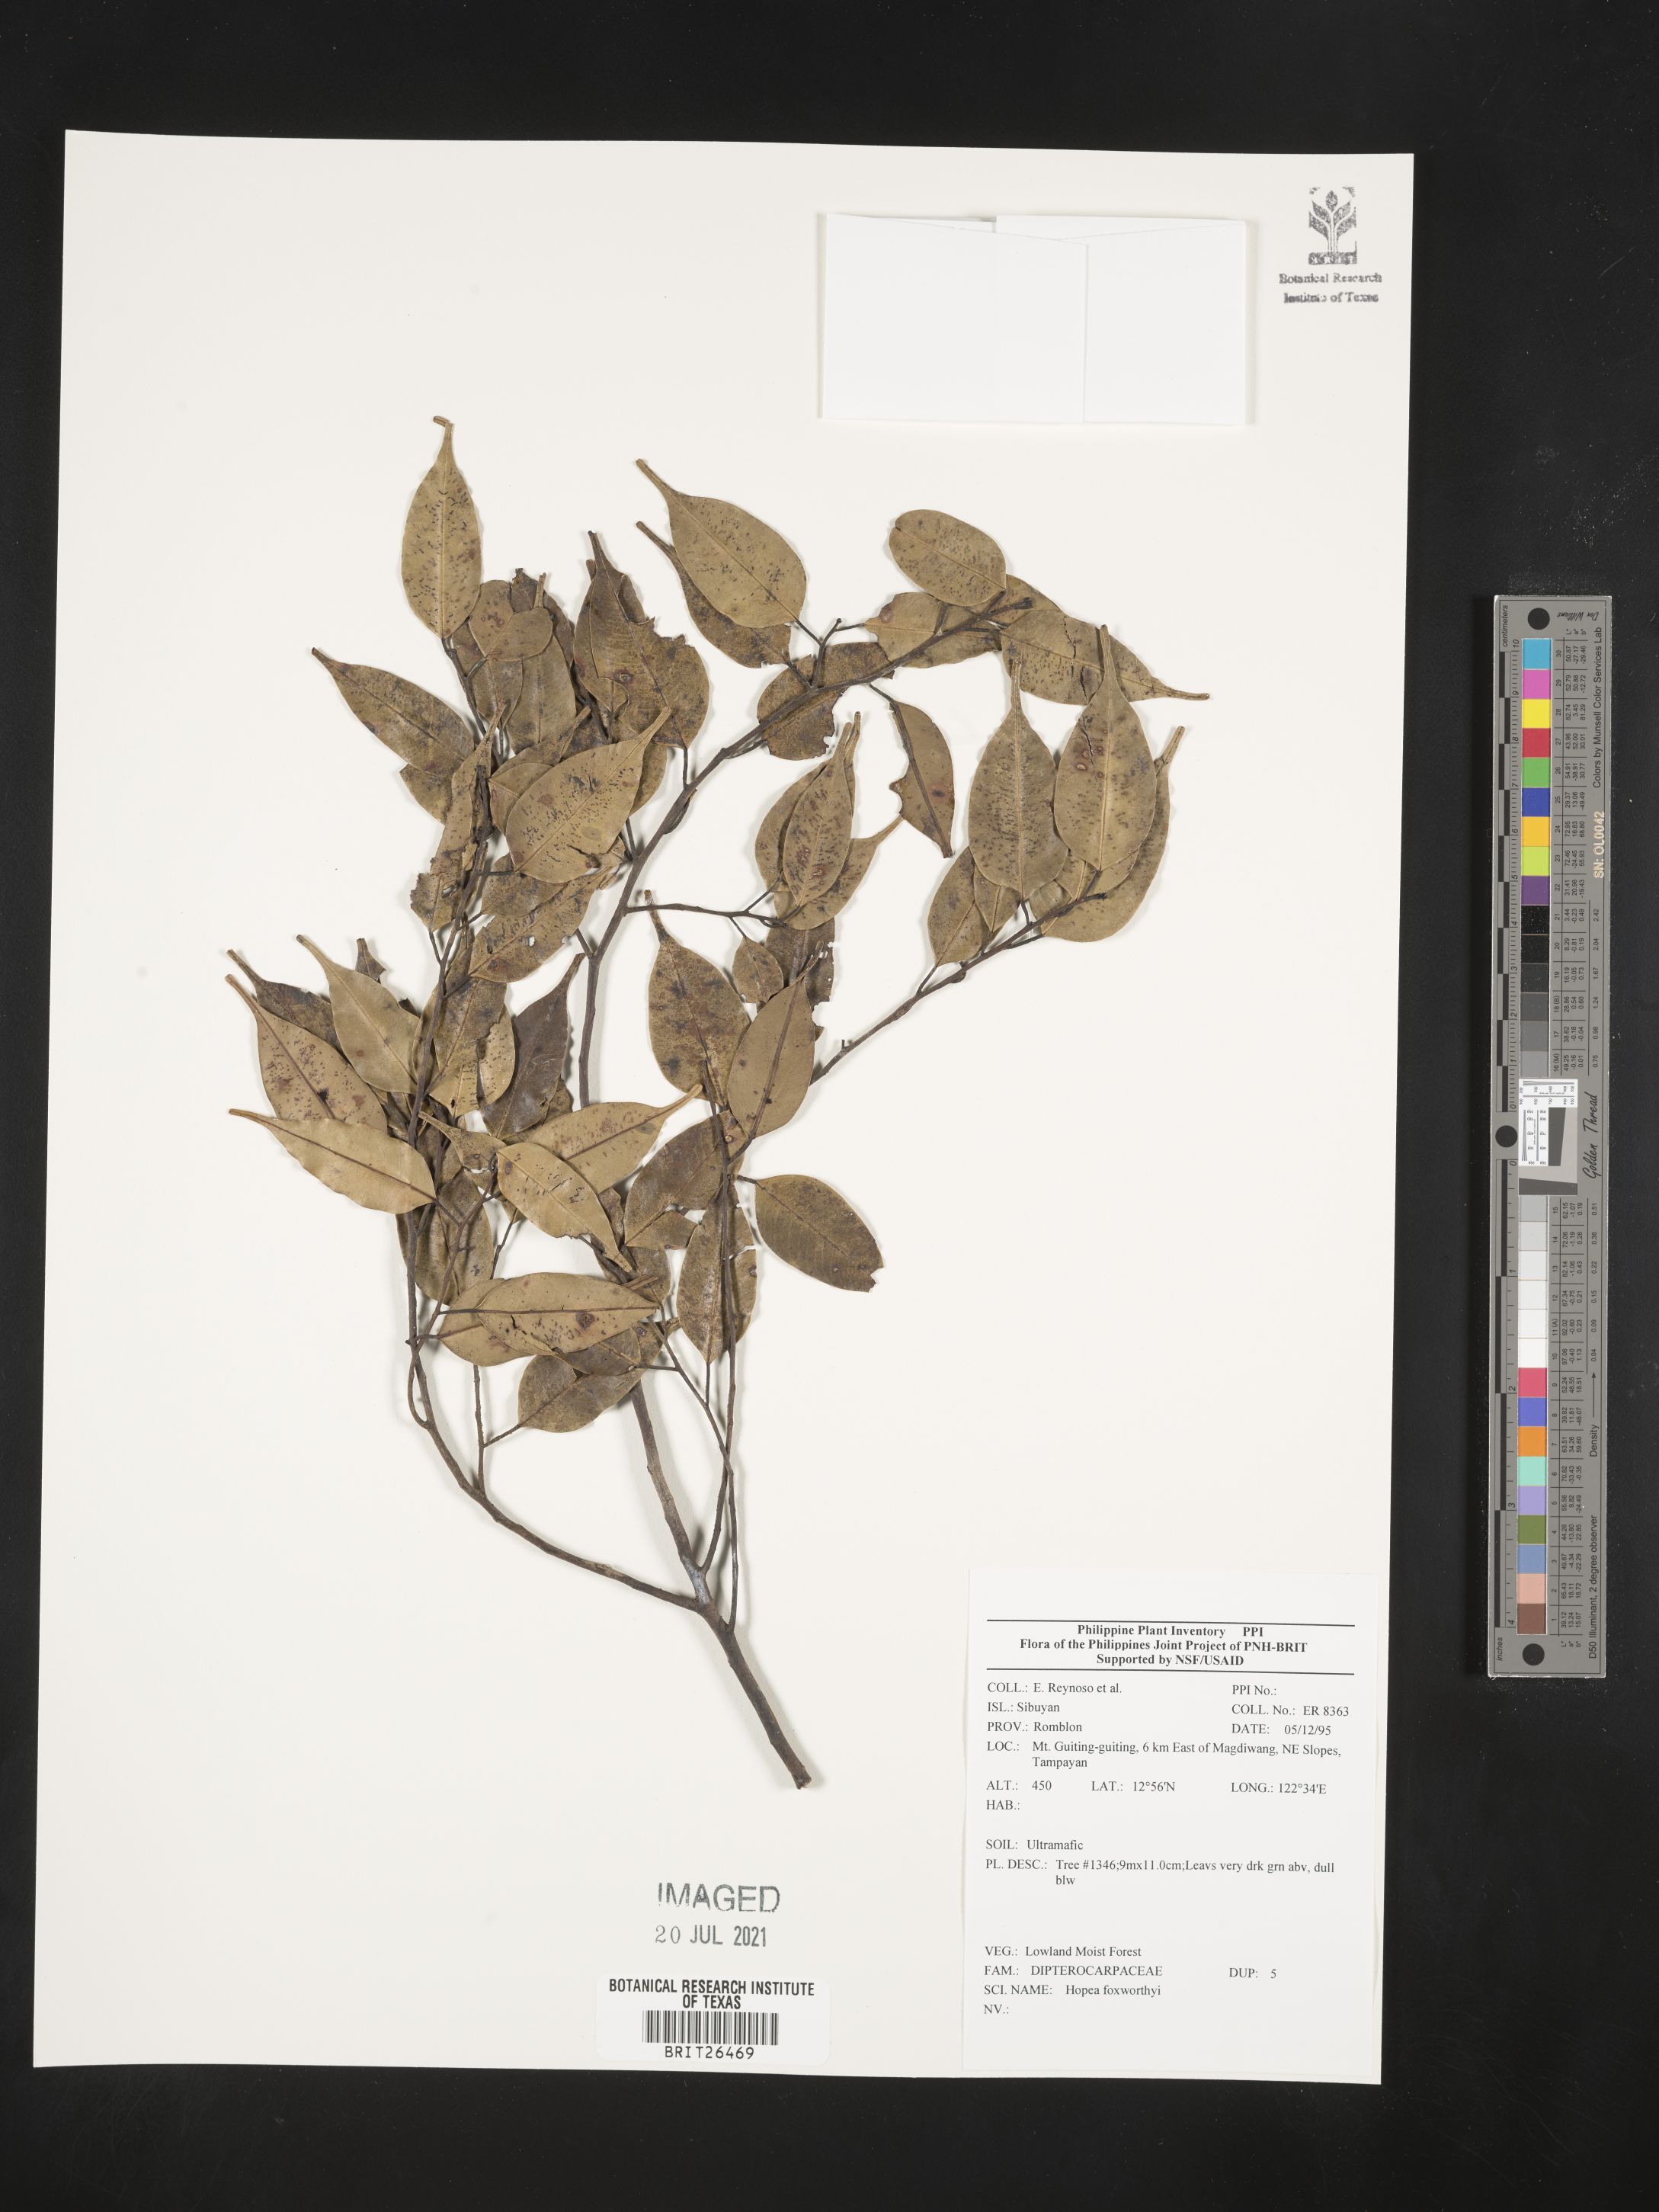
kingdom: Plantae
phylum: Tracheophyta
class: Magnoliopsida
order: Malvales
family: Dipterocarpaceae
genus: Hopea
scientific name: Hopea foxworthyi
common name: Dalingdingan
